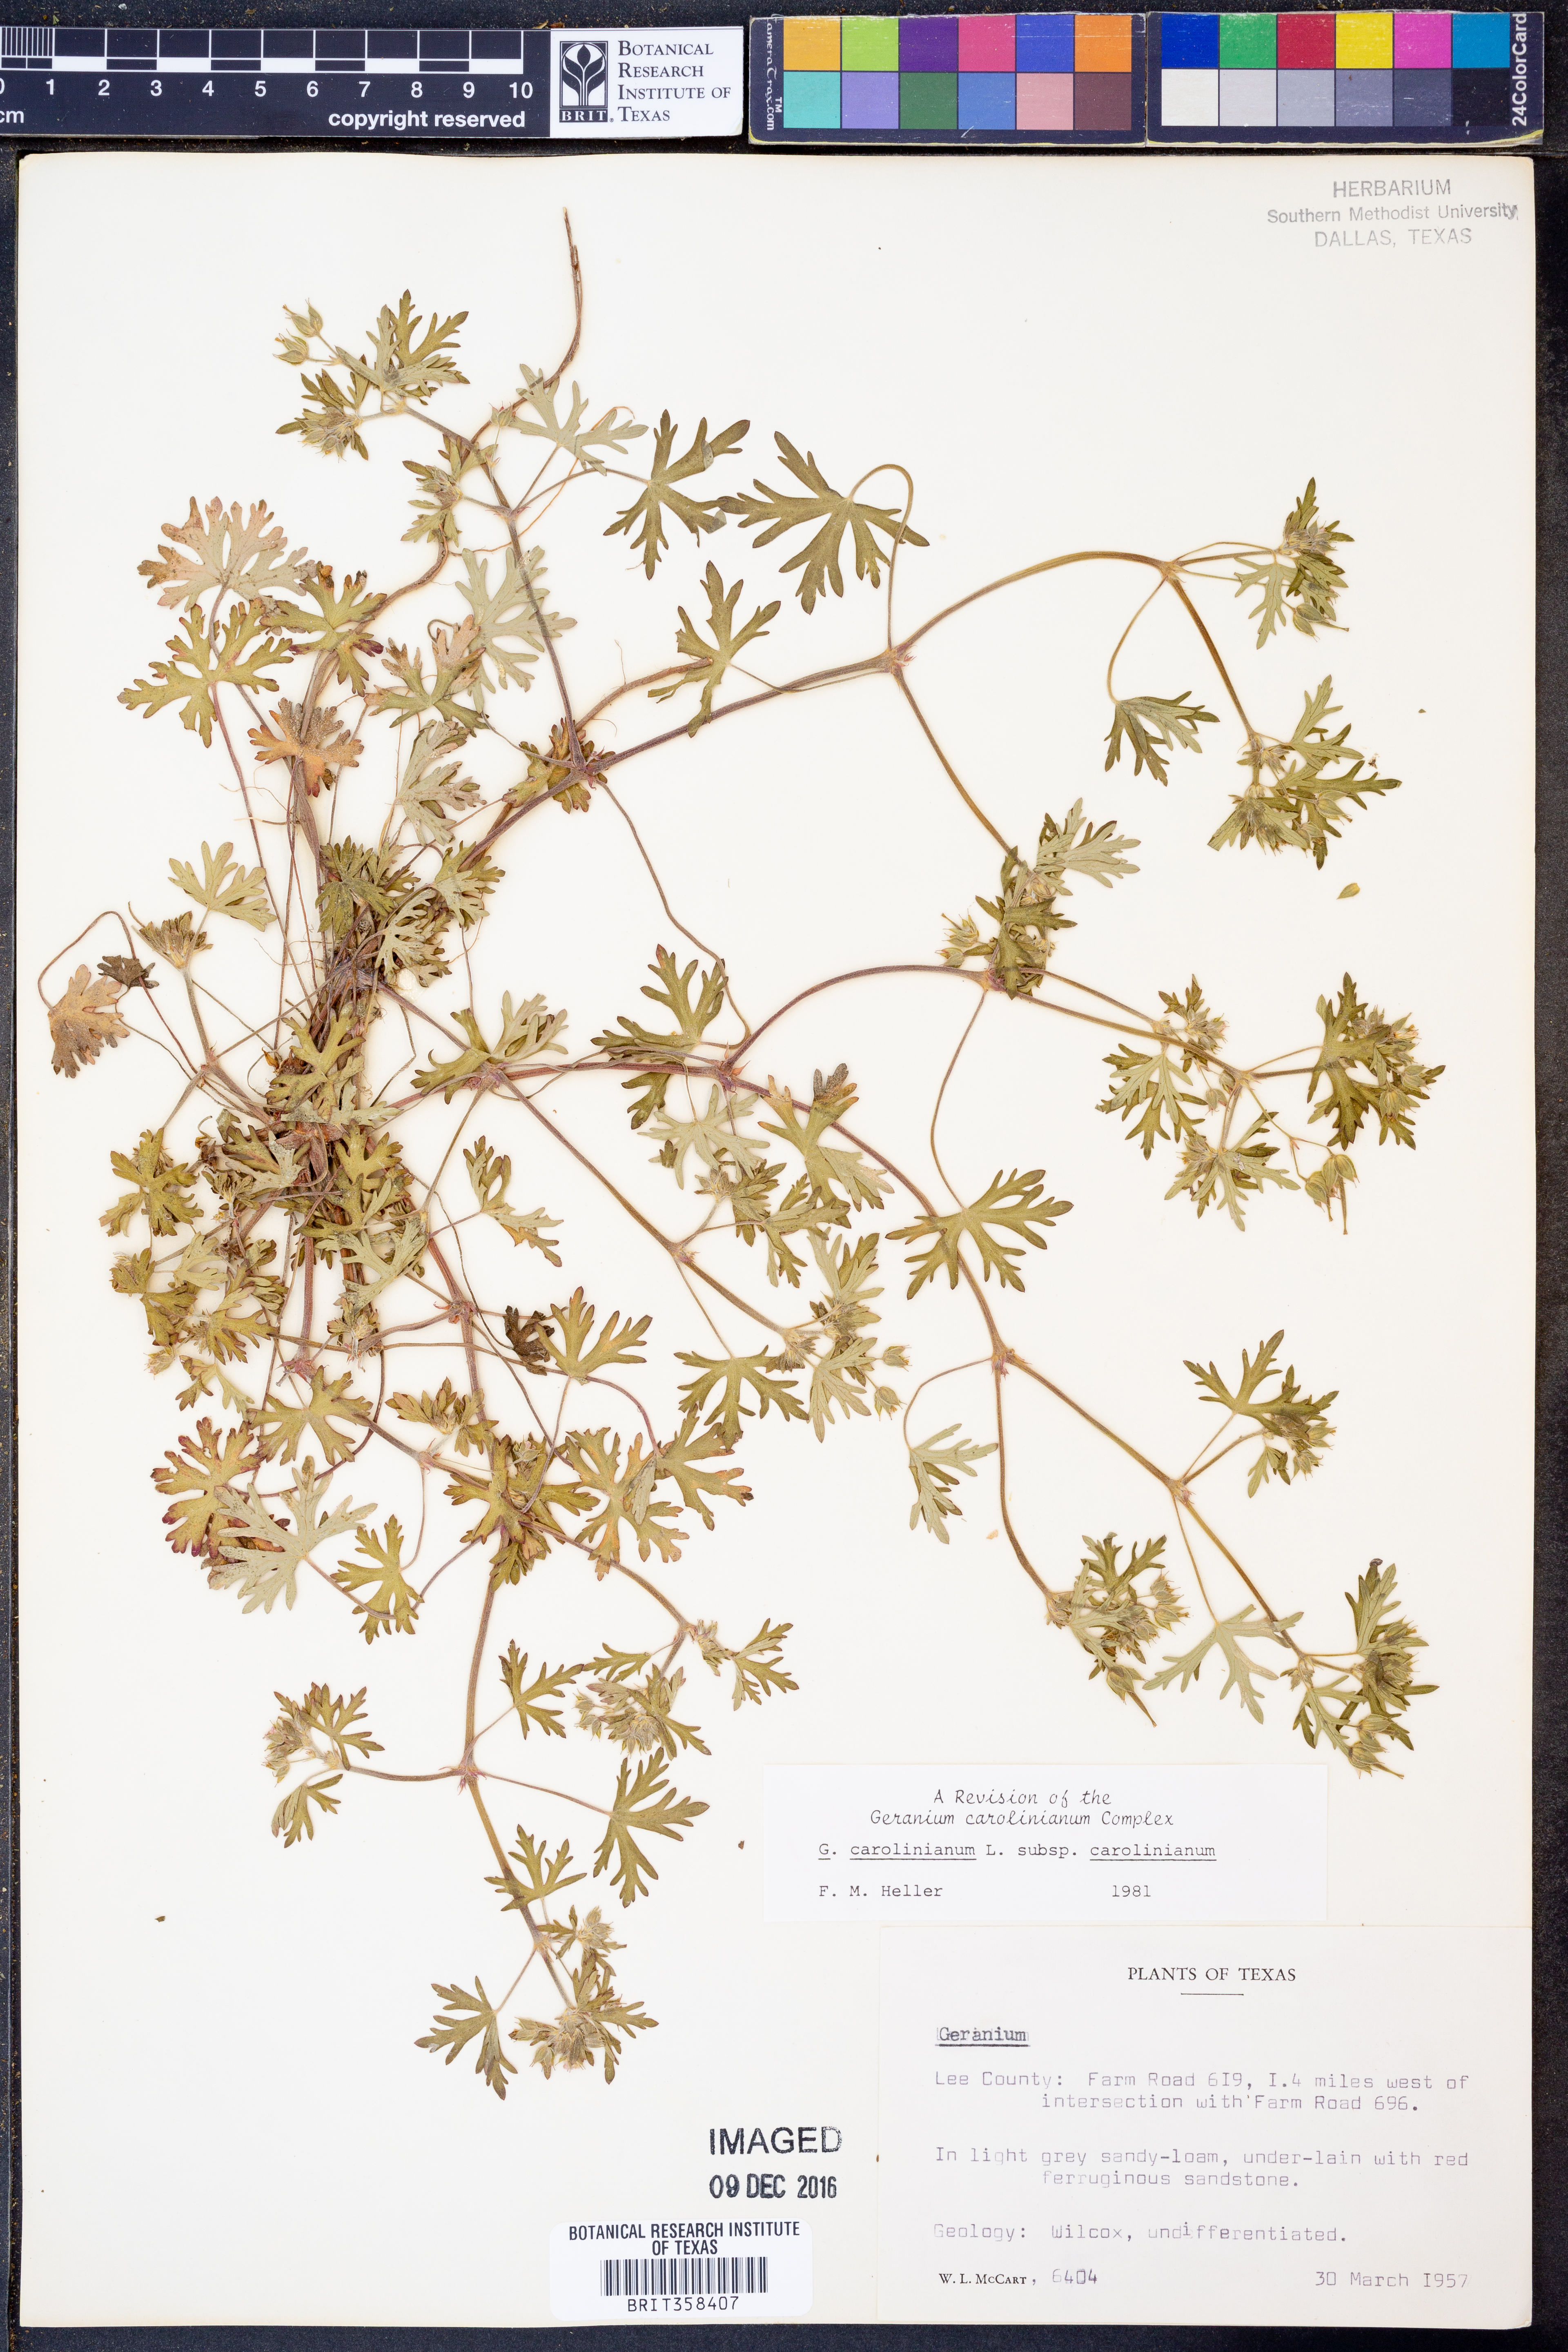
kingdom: Plantae
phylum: Tracheophyta
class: Magnoliopsida
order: Geraniales
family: Geraniaceae
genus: Geranium
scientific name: Geranium carolinianum
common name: Carolina crane's-bill
